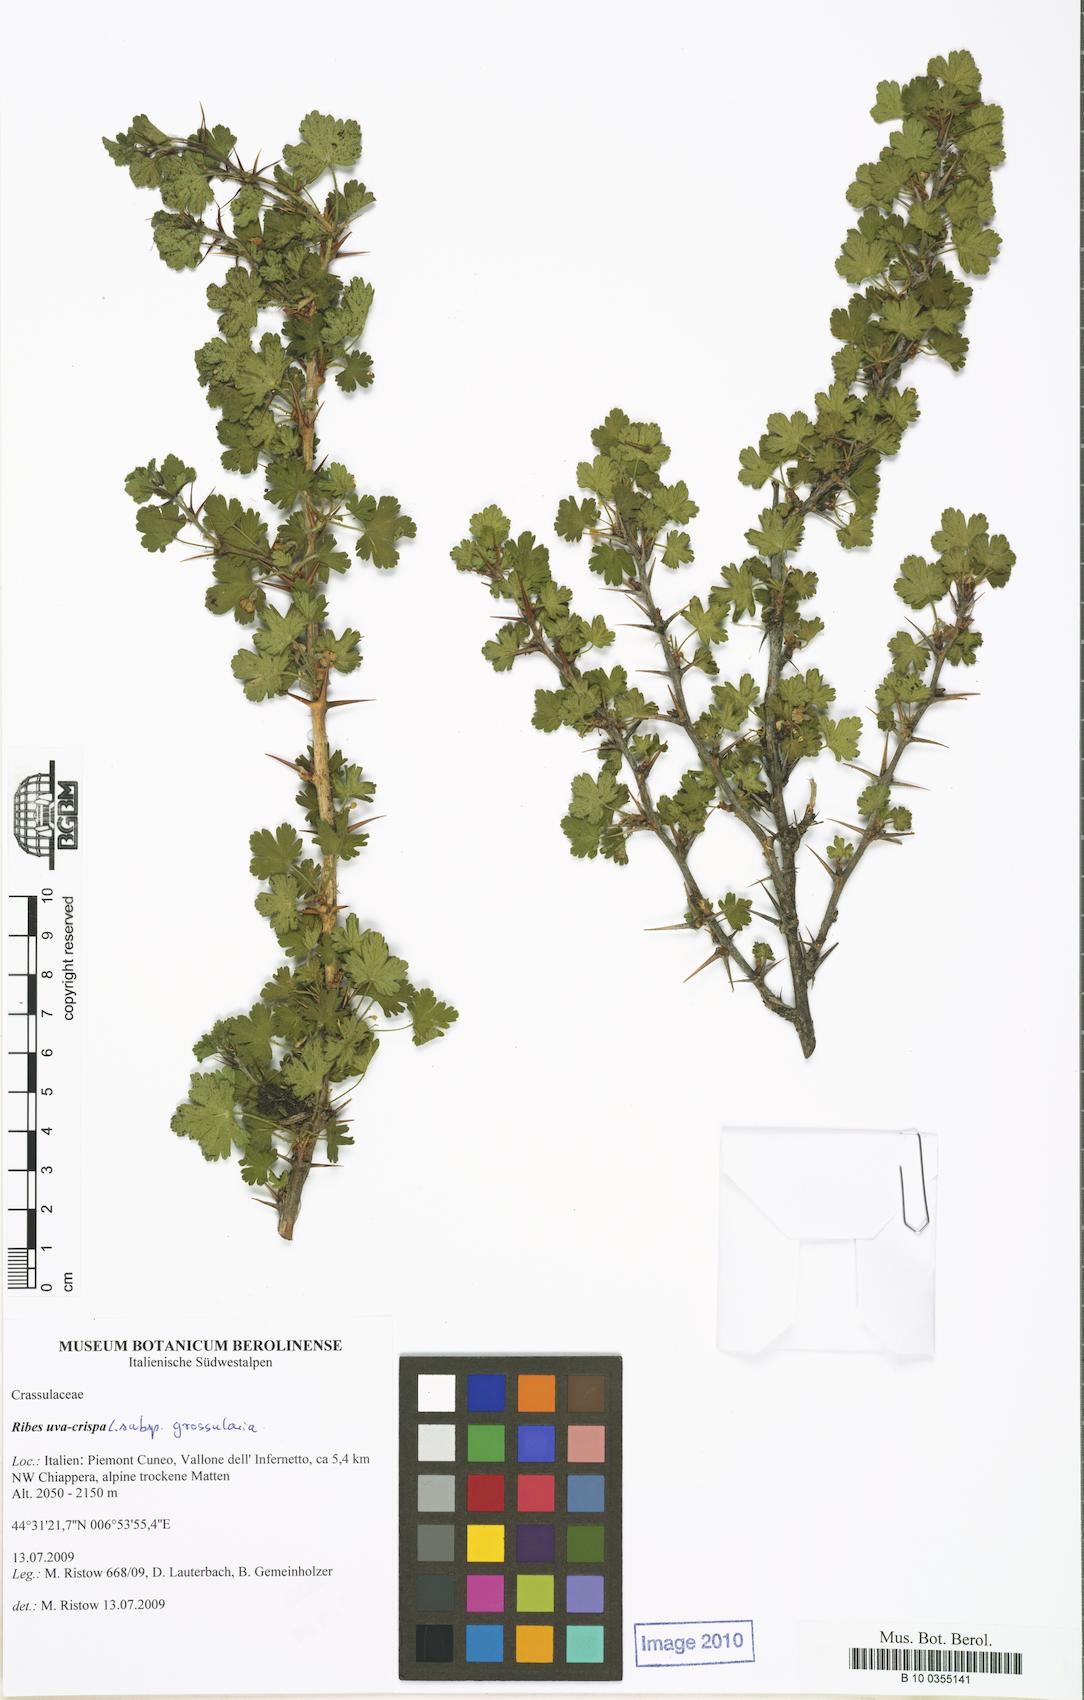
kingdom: Plantae
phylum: Tracheophyta
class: Magnoliopsida
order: Saxifragales
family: Grossulariaceae
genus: Ribes
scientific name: Ribes uva-crispa
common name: Gooseberry
